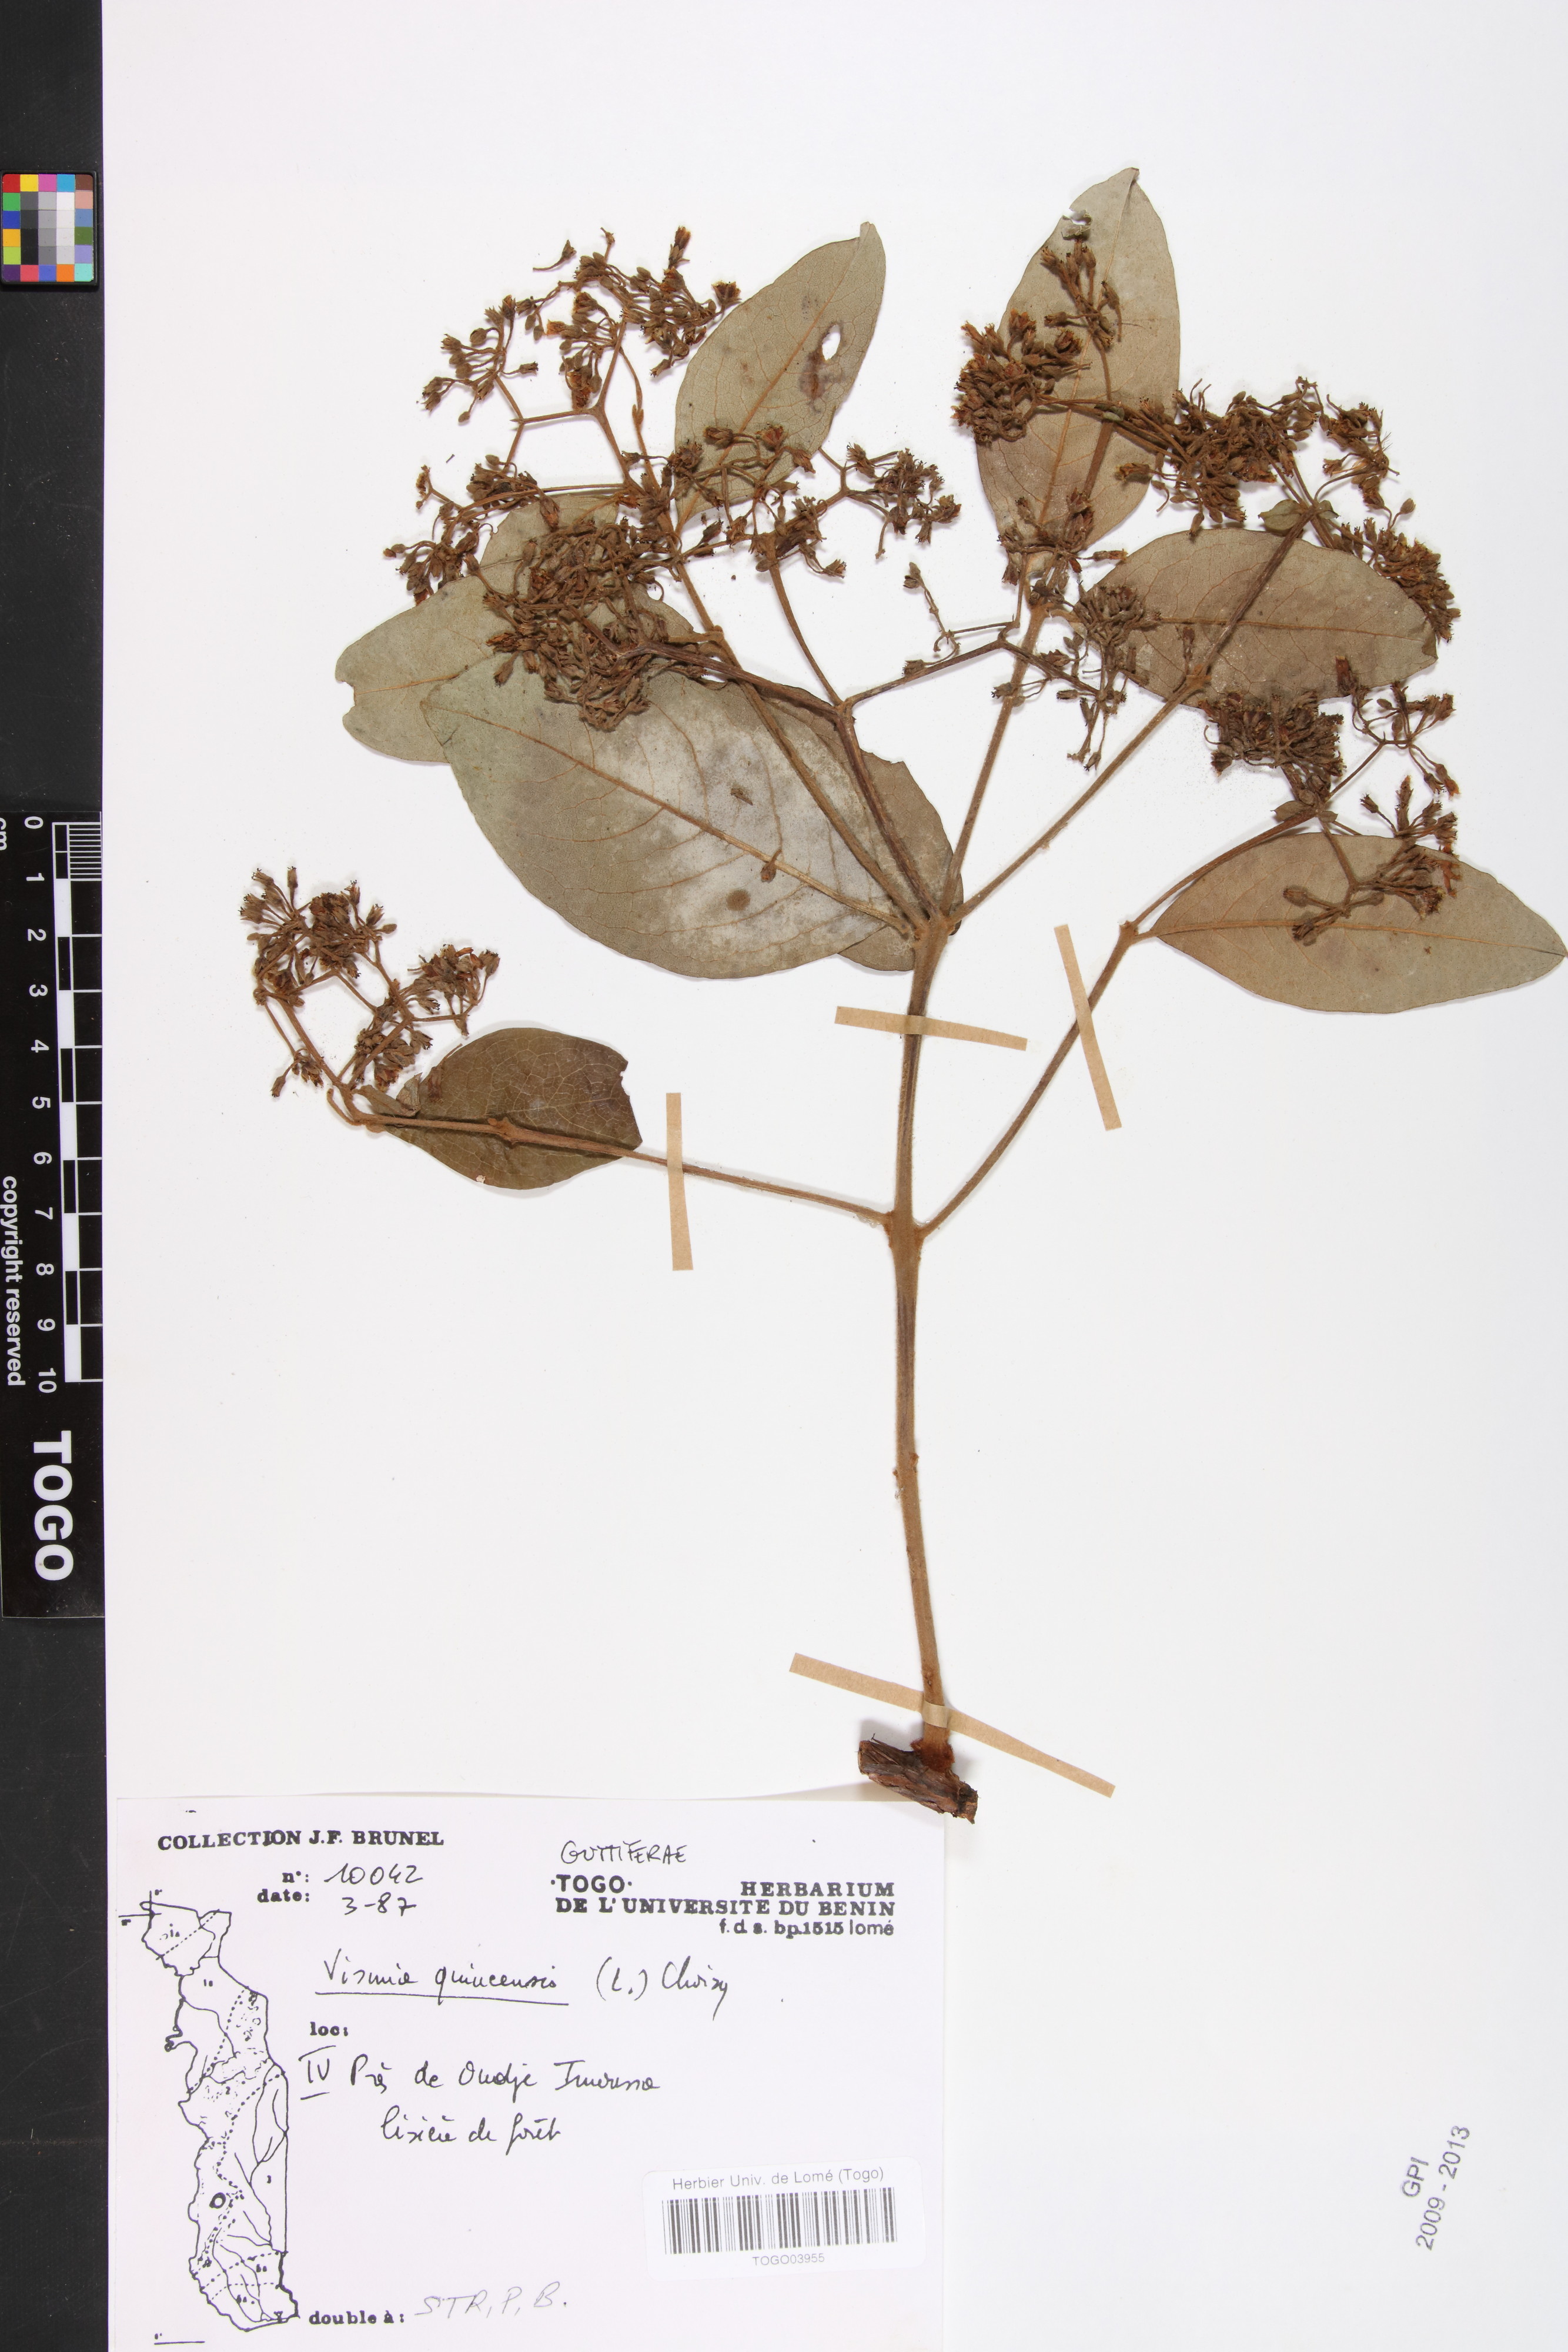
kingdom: Plantae
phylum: Tracheophyta
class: Magnoliopsida
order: Malpighiales
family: Hypericaceae
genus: Psorospermum
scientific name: Psorospermum guineense
